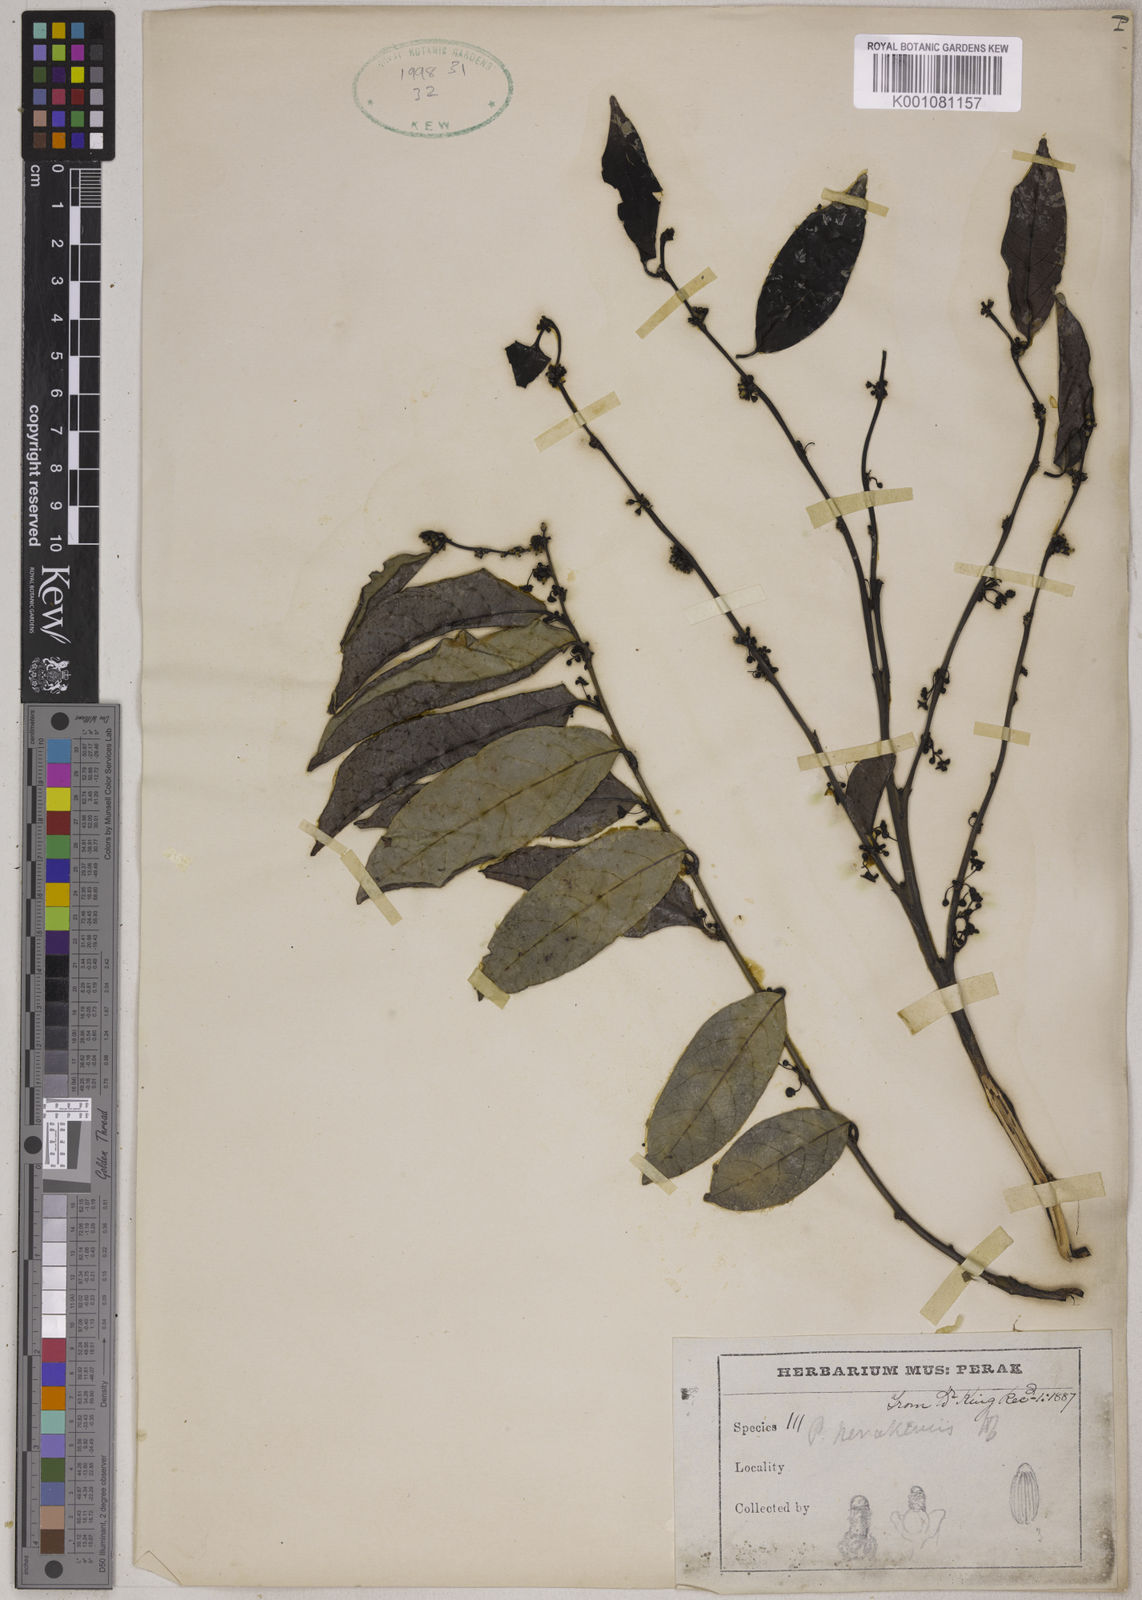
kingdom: Plantae
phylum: Tracheophyta
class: Magnoliopsida
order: Malpighiales
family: Phyllanthaceae
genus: Glochidion
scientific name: Glochidion zeylanicum
